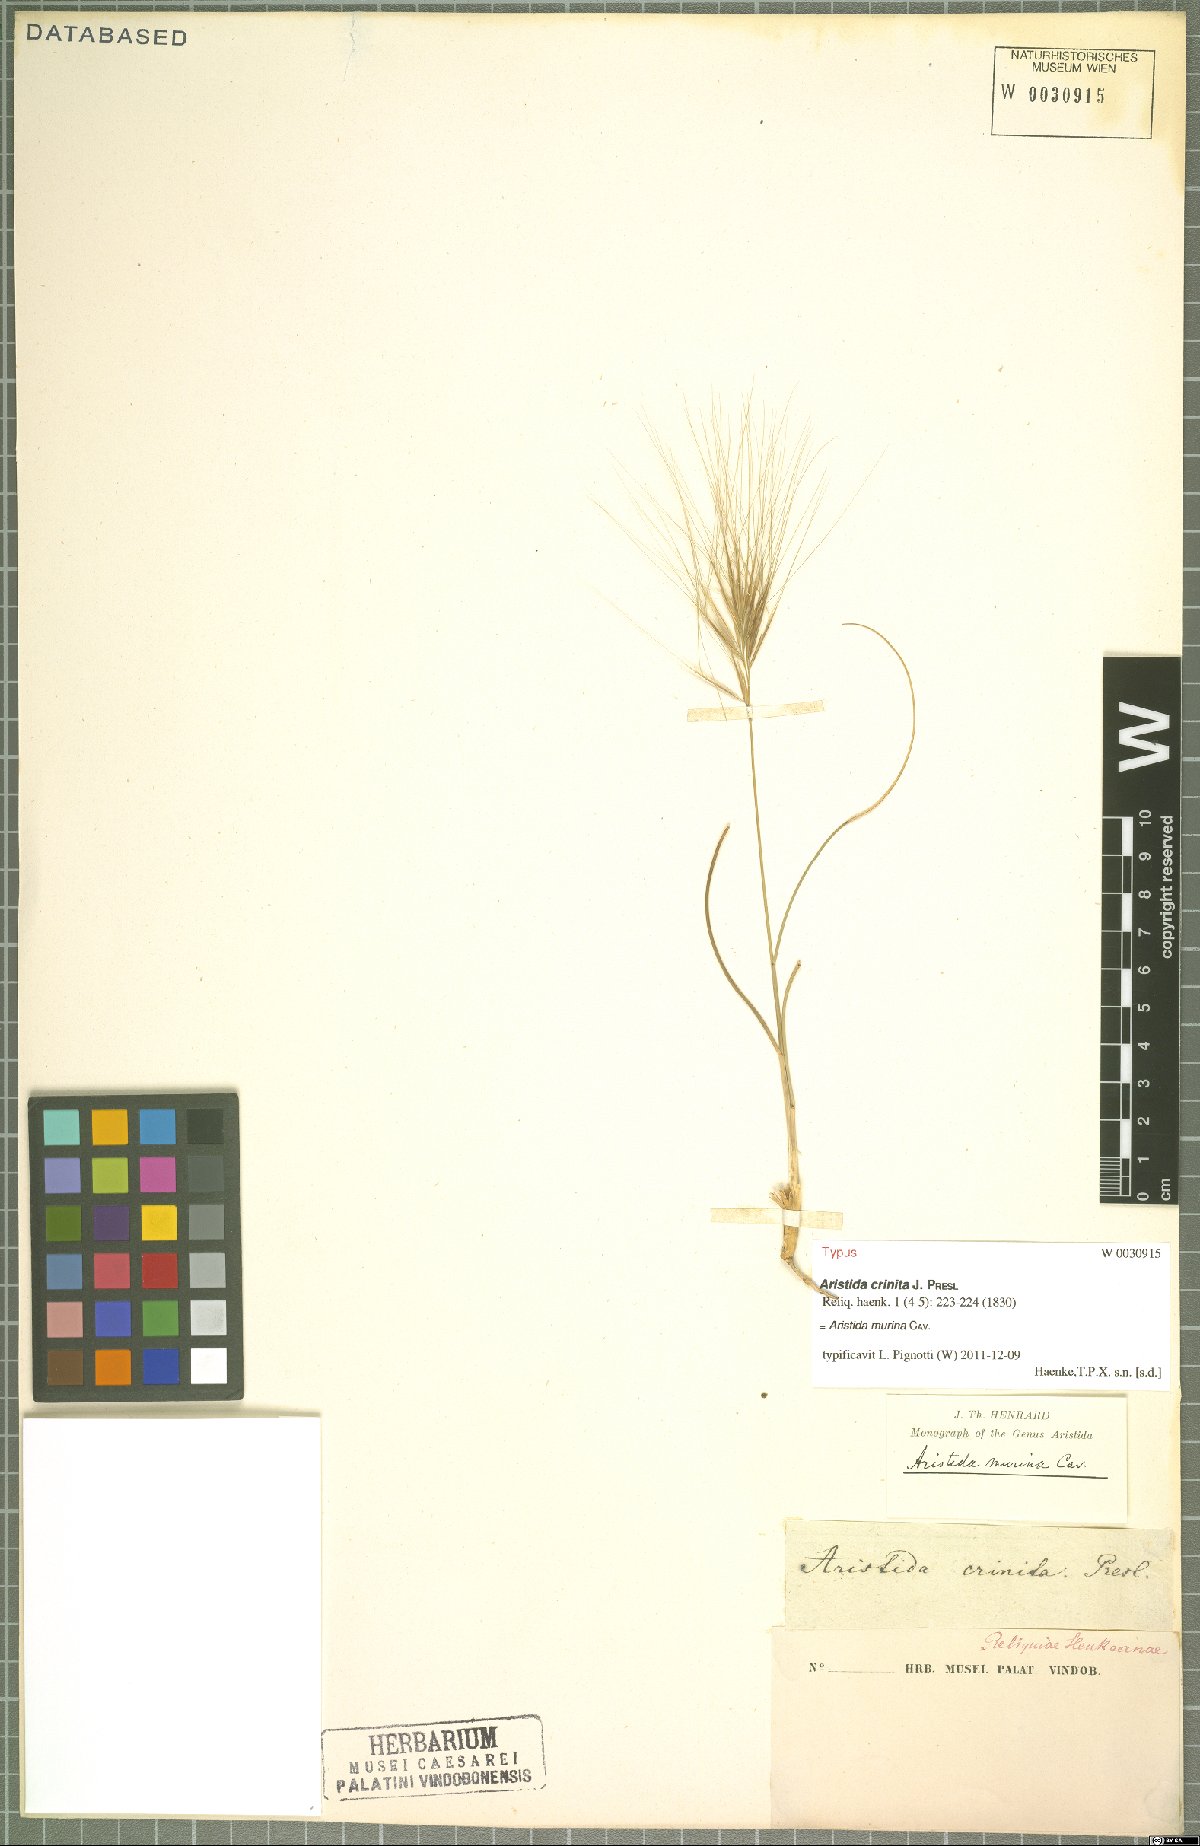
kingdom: Plantae
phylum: Tracheophyta
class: Liliopsida
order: Poales
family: Poaceae
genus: Aristida
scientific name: Aristida murina
